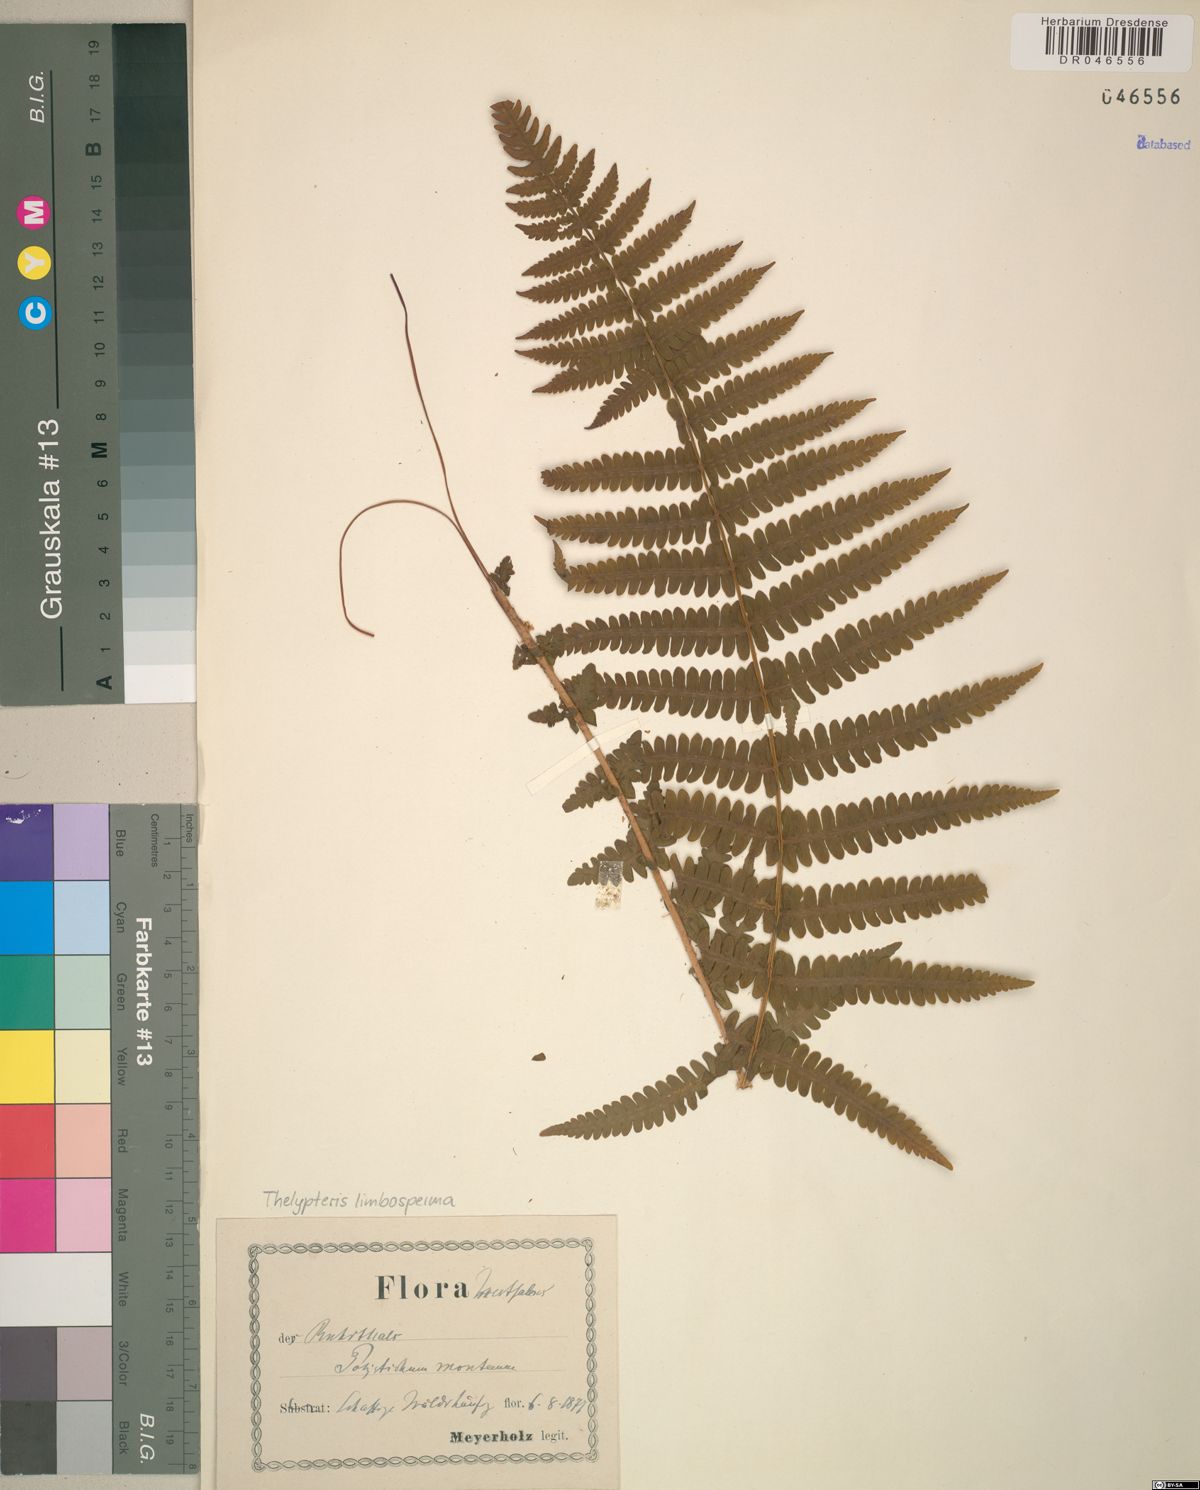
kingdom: Plantae
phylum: Tracheophyta
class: Polypodiopsida
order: Polypodiales
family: Thelypteridaceae
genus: Oreopteris
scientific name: Oreopteris limbosperma
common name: Lemon-scented fern
